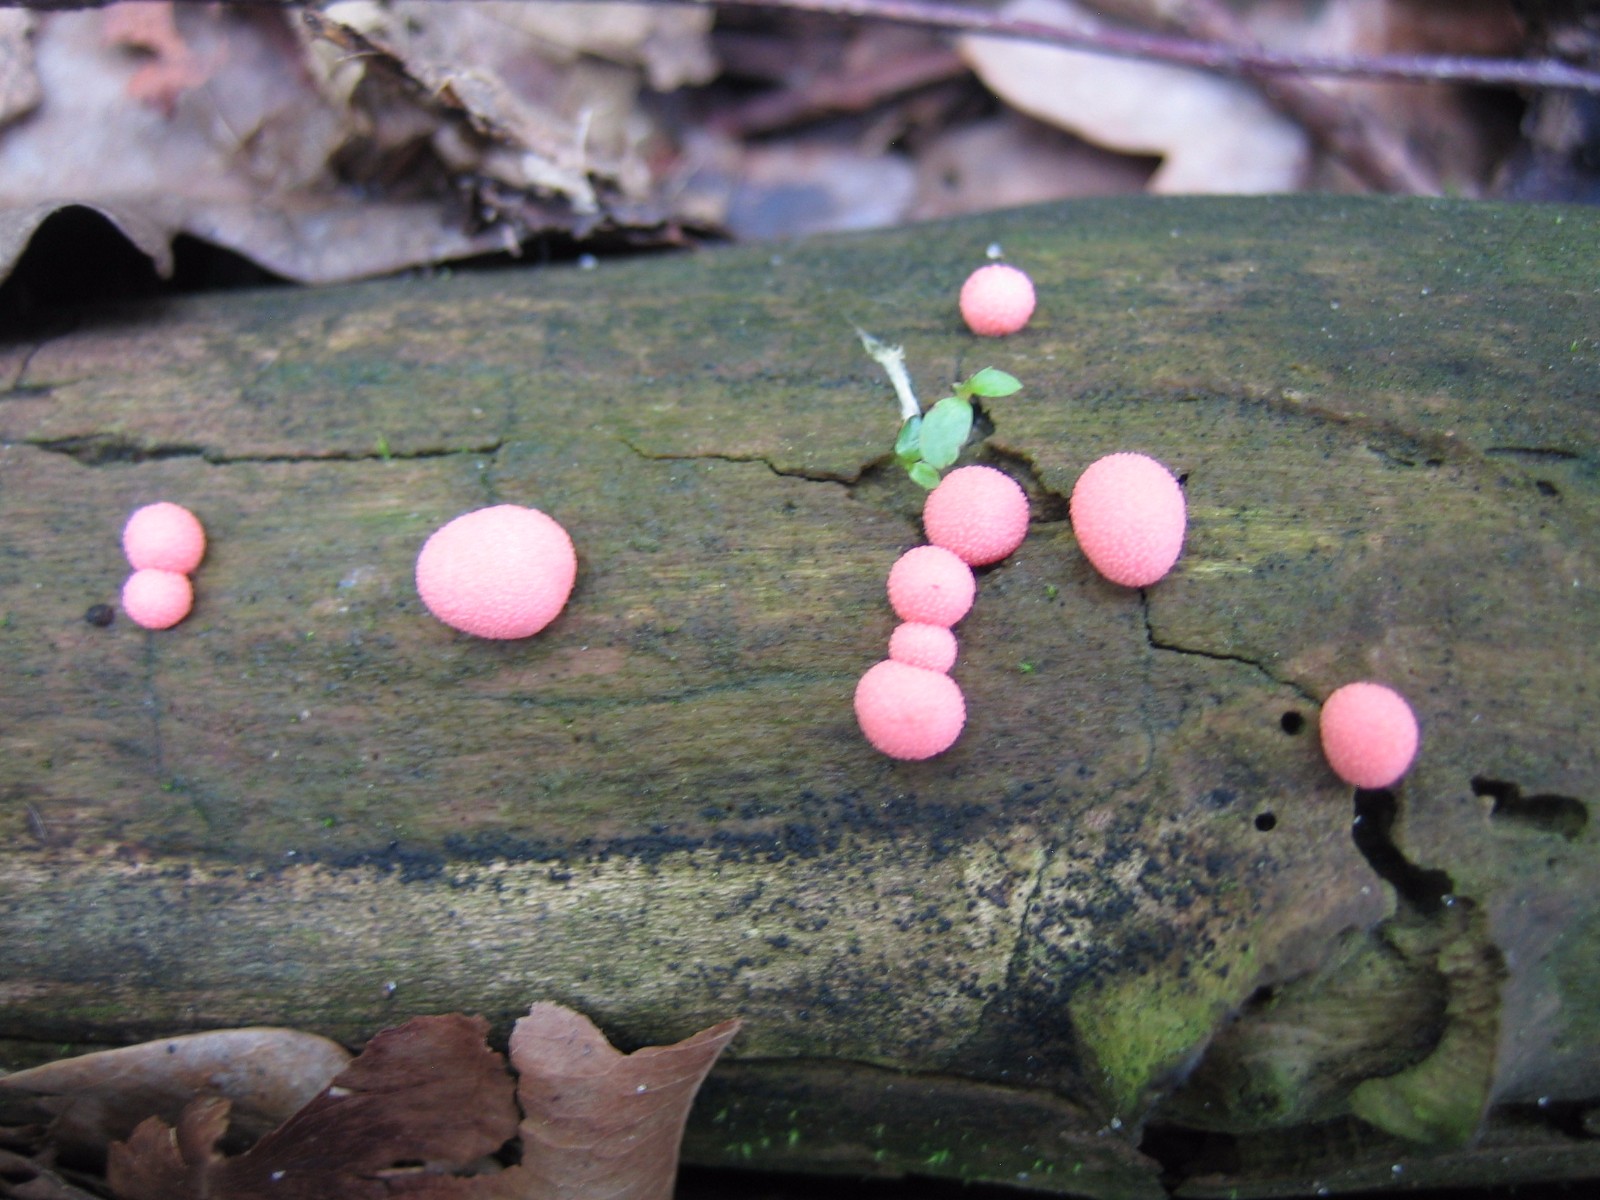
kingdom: Protozoa
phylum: Mycetozoa
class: Myxomycetes
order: Cribrariales
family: Tubiferaceae
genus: Lycogala
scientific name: Lycogala epidendrum
